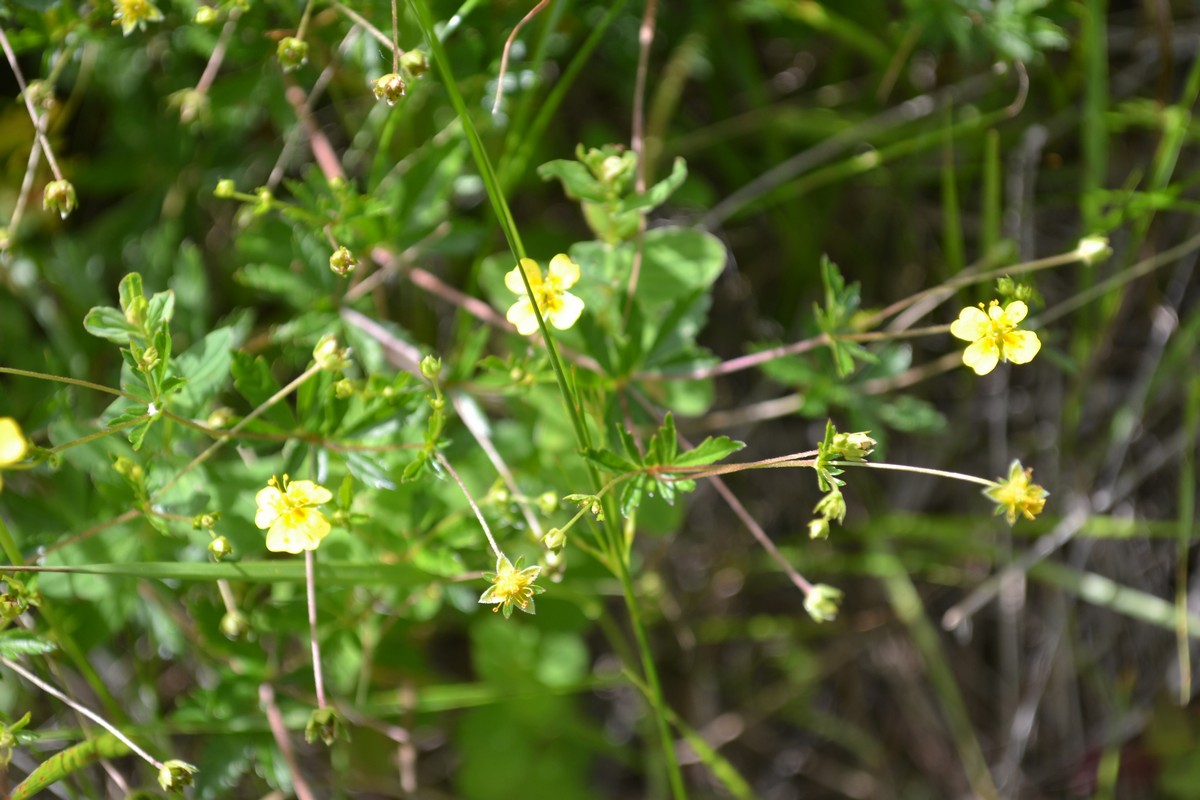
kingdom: Plantae
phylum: Tracheophyta
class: Magnoliopsida
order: Rosales
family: Rosaceae
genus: Potentilla
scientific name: Potentilla erecta
